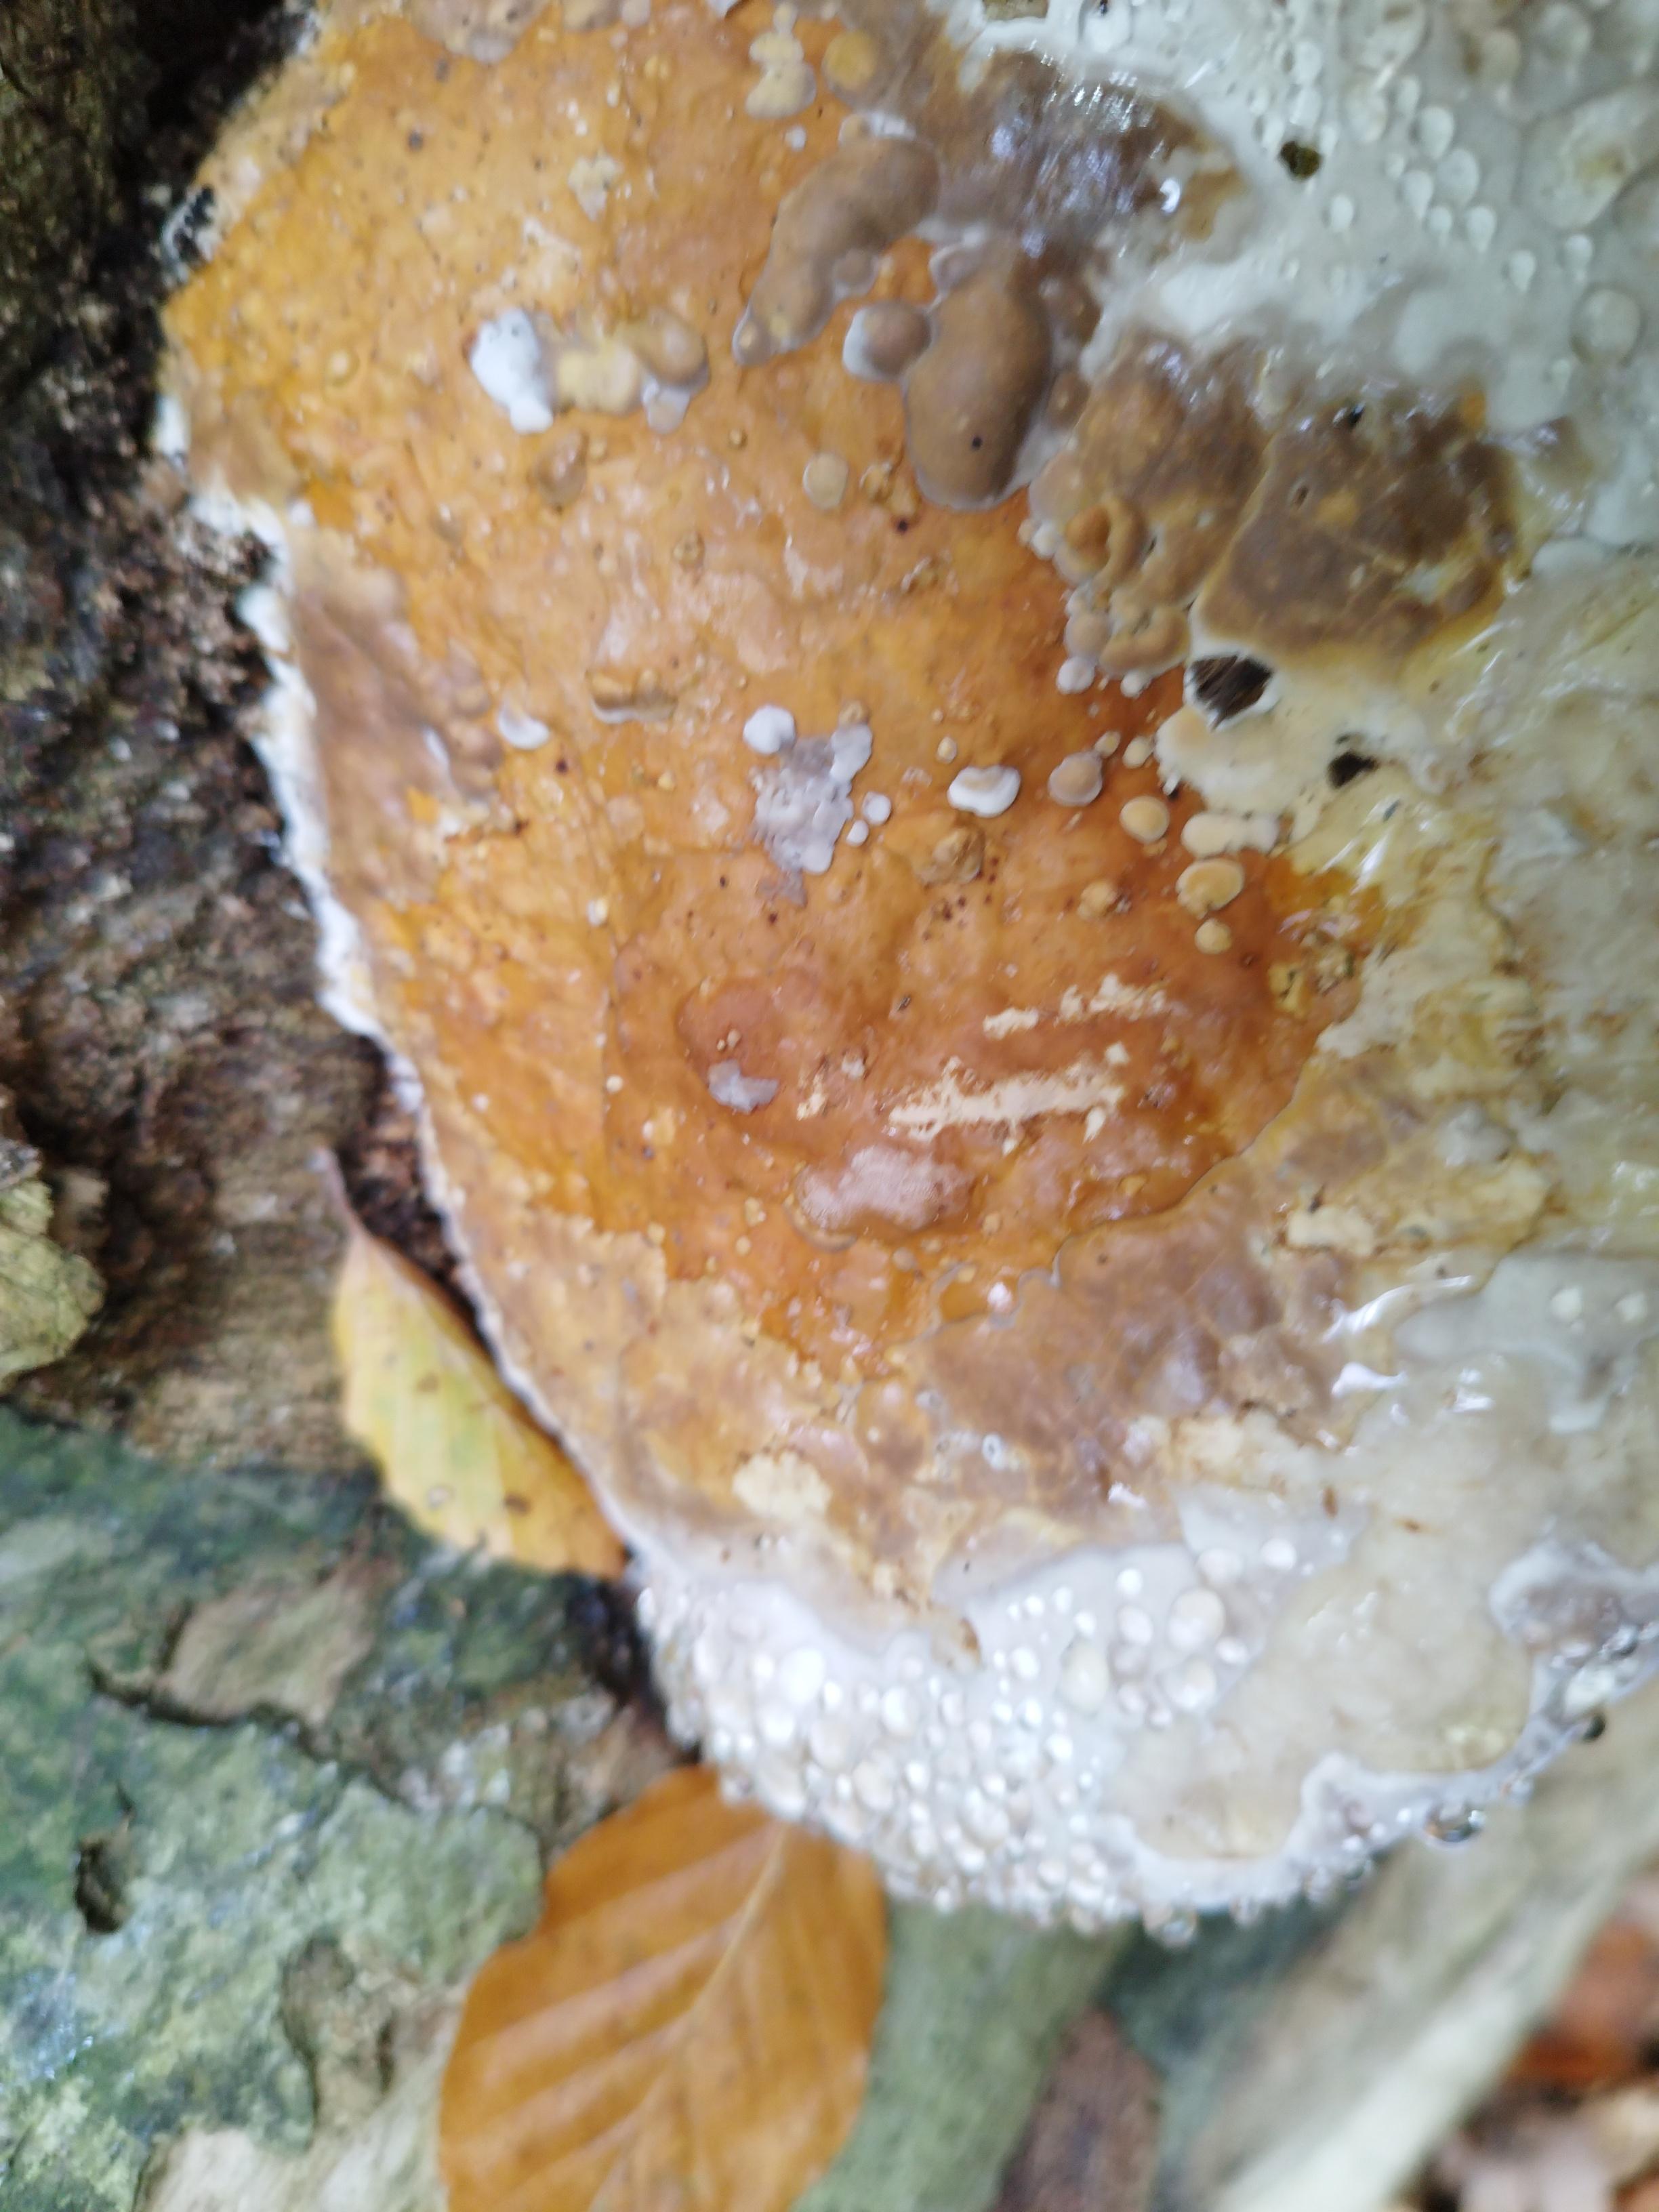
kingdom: Fungi
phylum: Basidiomycota
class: Agaricomycetes
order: Polyporales
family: Fomitopsidaceae
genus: Fomitopsis
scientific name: Fomitopsis pinicola
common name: randbæltet hovporesvamp
